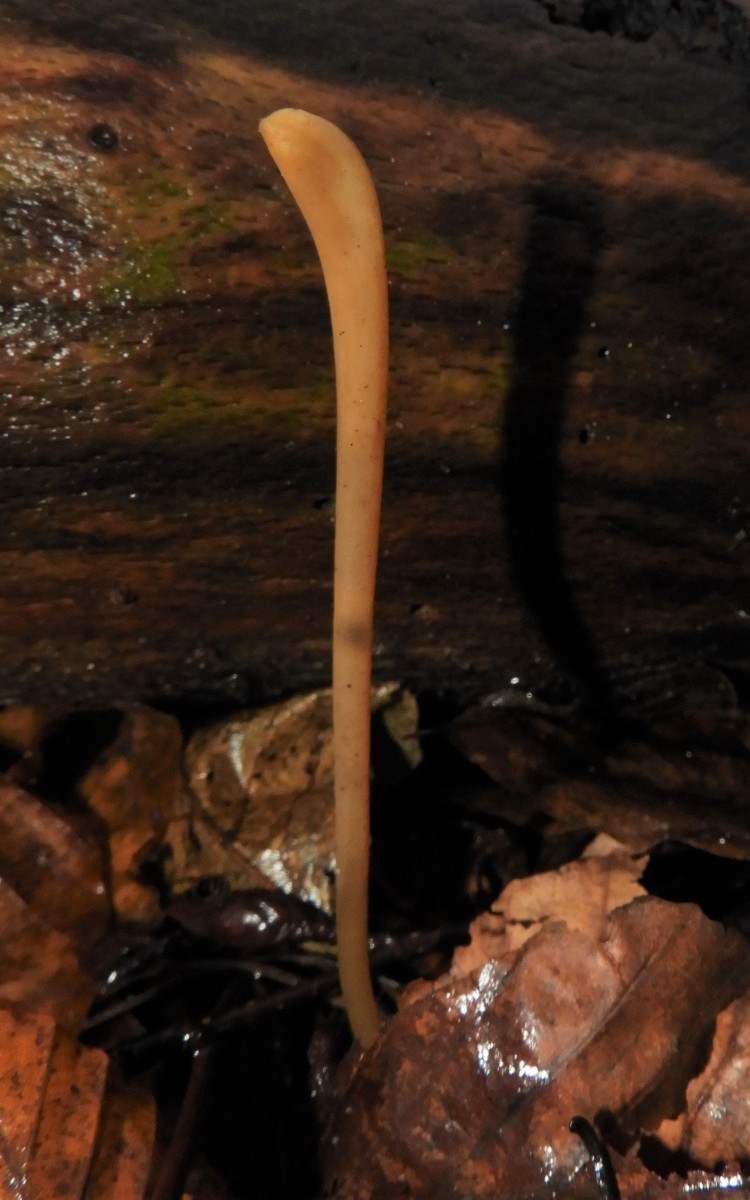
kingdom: Fungi
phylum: Basidiomycota
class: Agaricomycetes
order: Agaricales
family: Typhulaceae
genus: Typhula
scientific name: Typhula fistulosa
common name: pibet rørkølle
